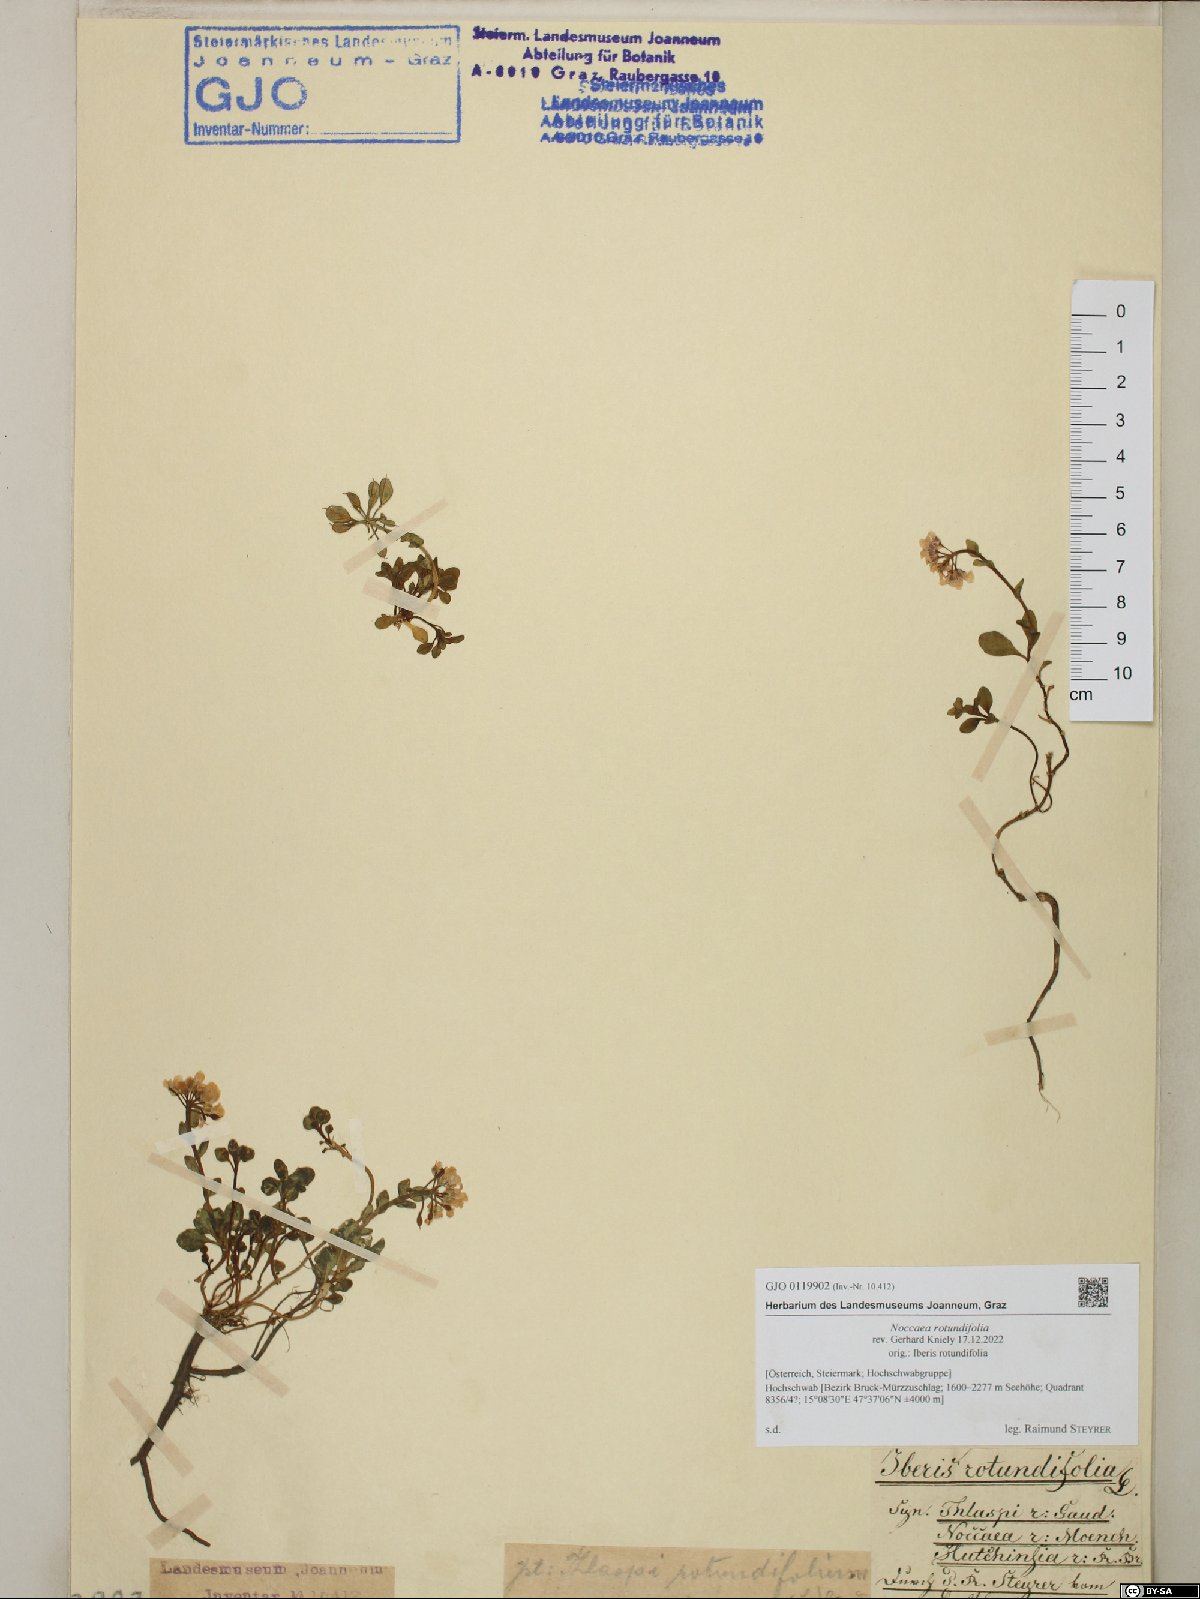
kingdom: Plantae
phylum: Tracheophyta
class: Magnoliopsida
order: Brassicales
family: Brassicaceae
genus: Noccaea
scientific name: Noccaea rotundifolia
